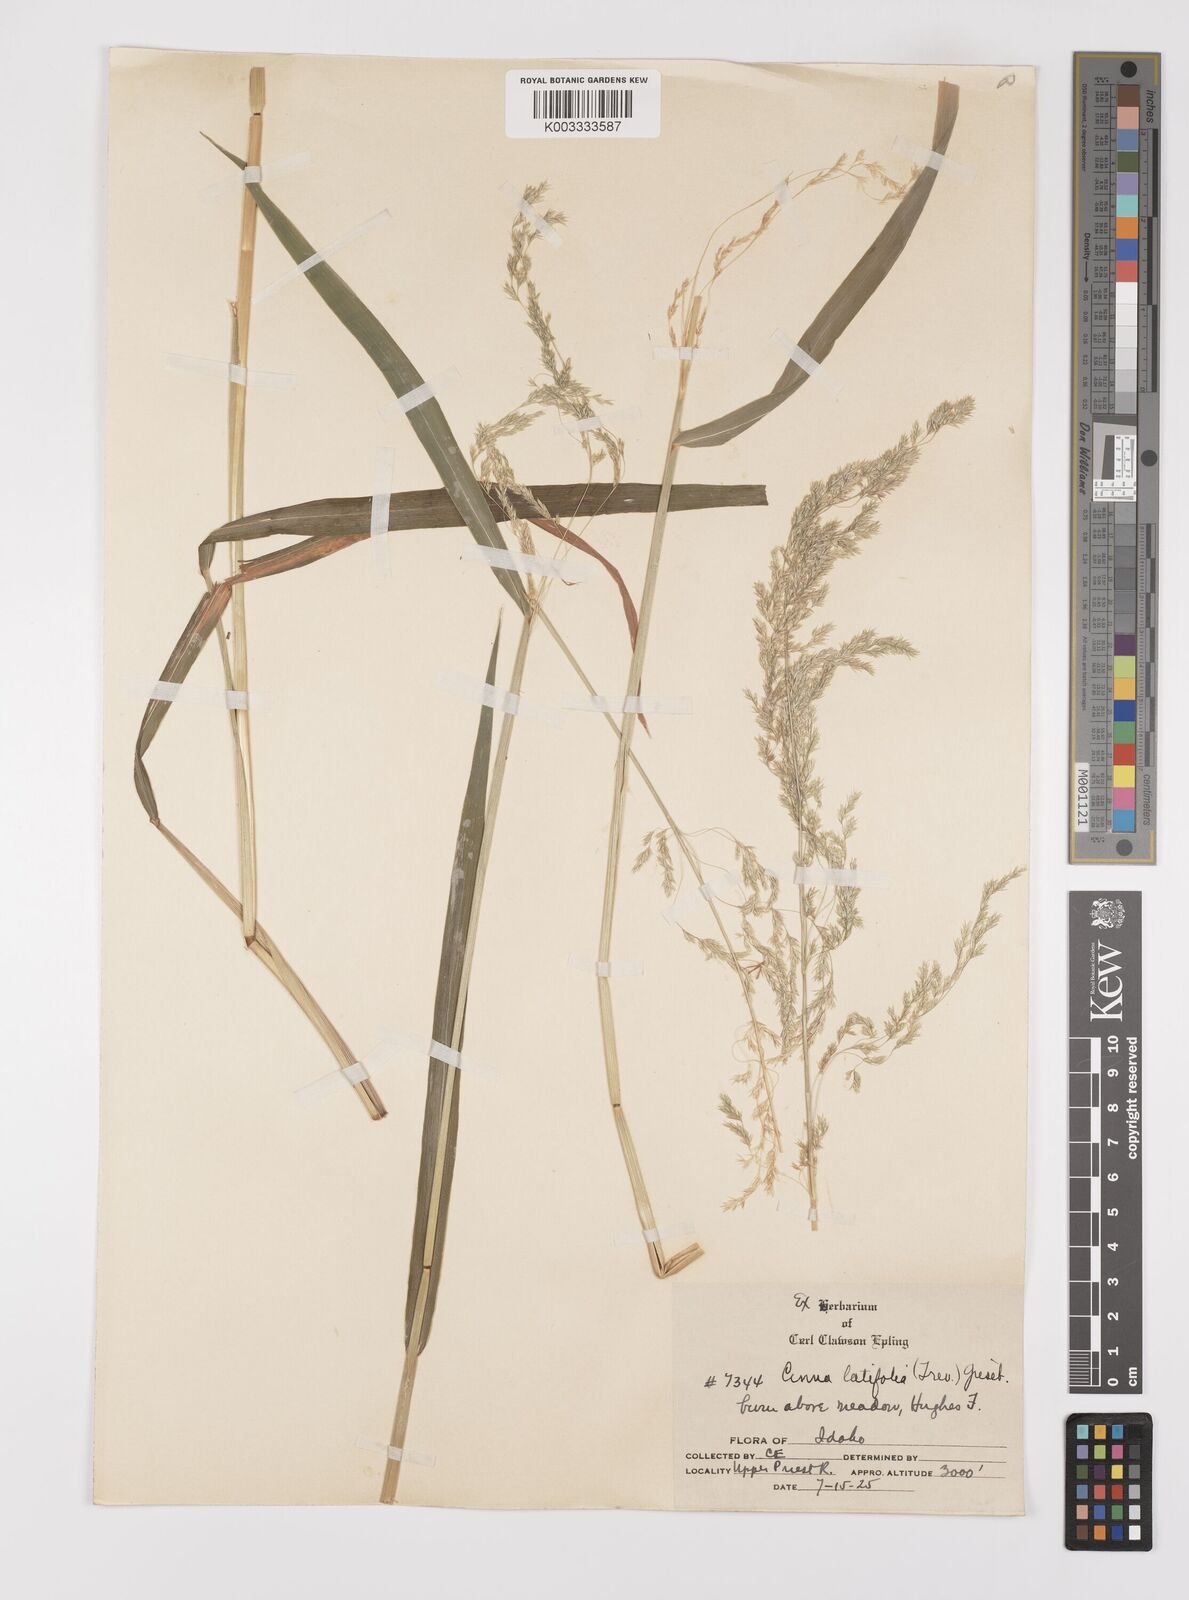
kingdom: Plantae
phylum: Tracheophyta
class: Liliopsida
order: Poales
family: Poaceae
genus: Cinna
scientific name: Cinna latifolia
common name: Drooping woodreed
